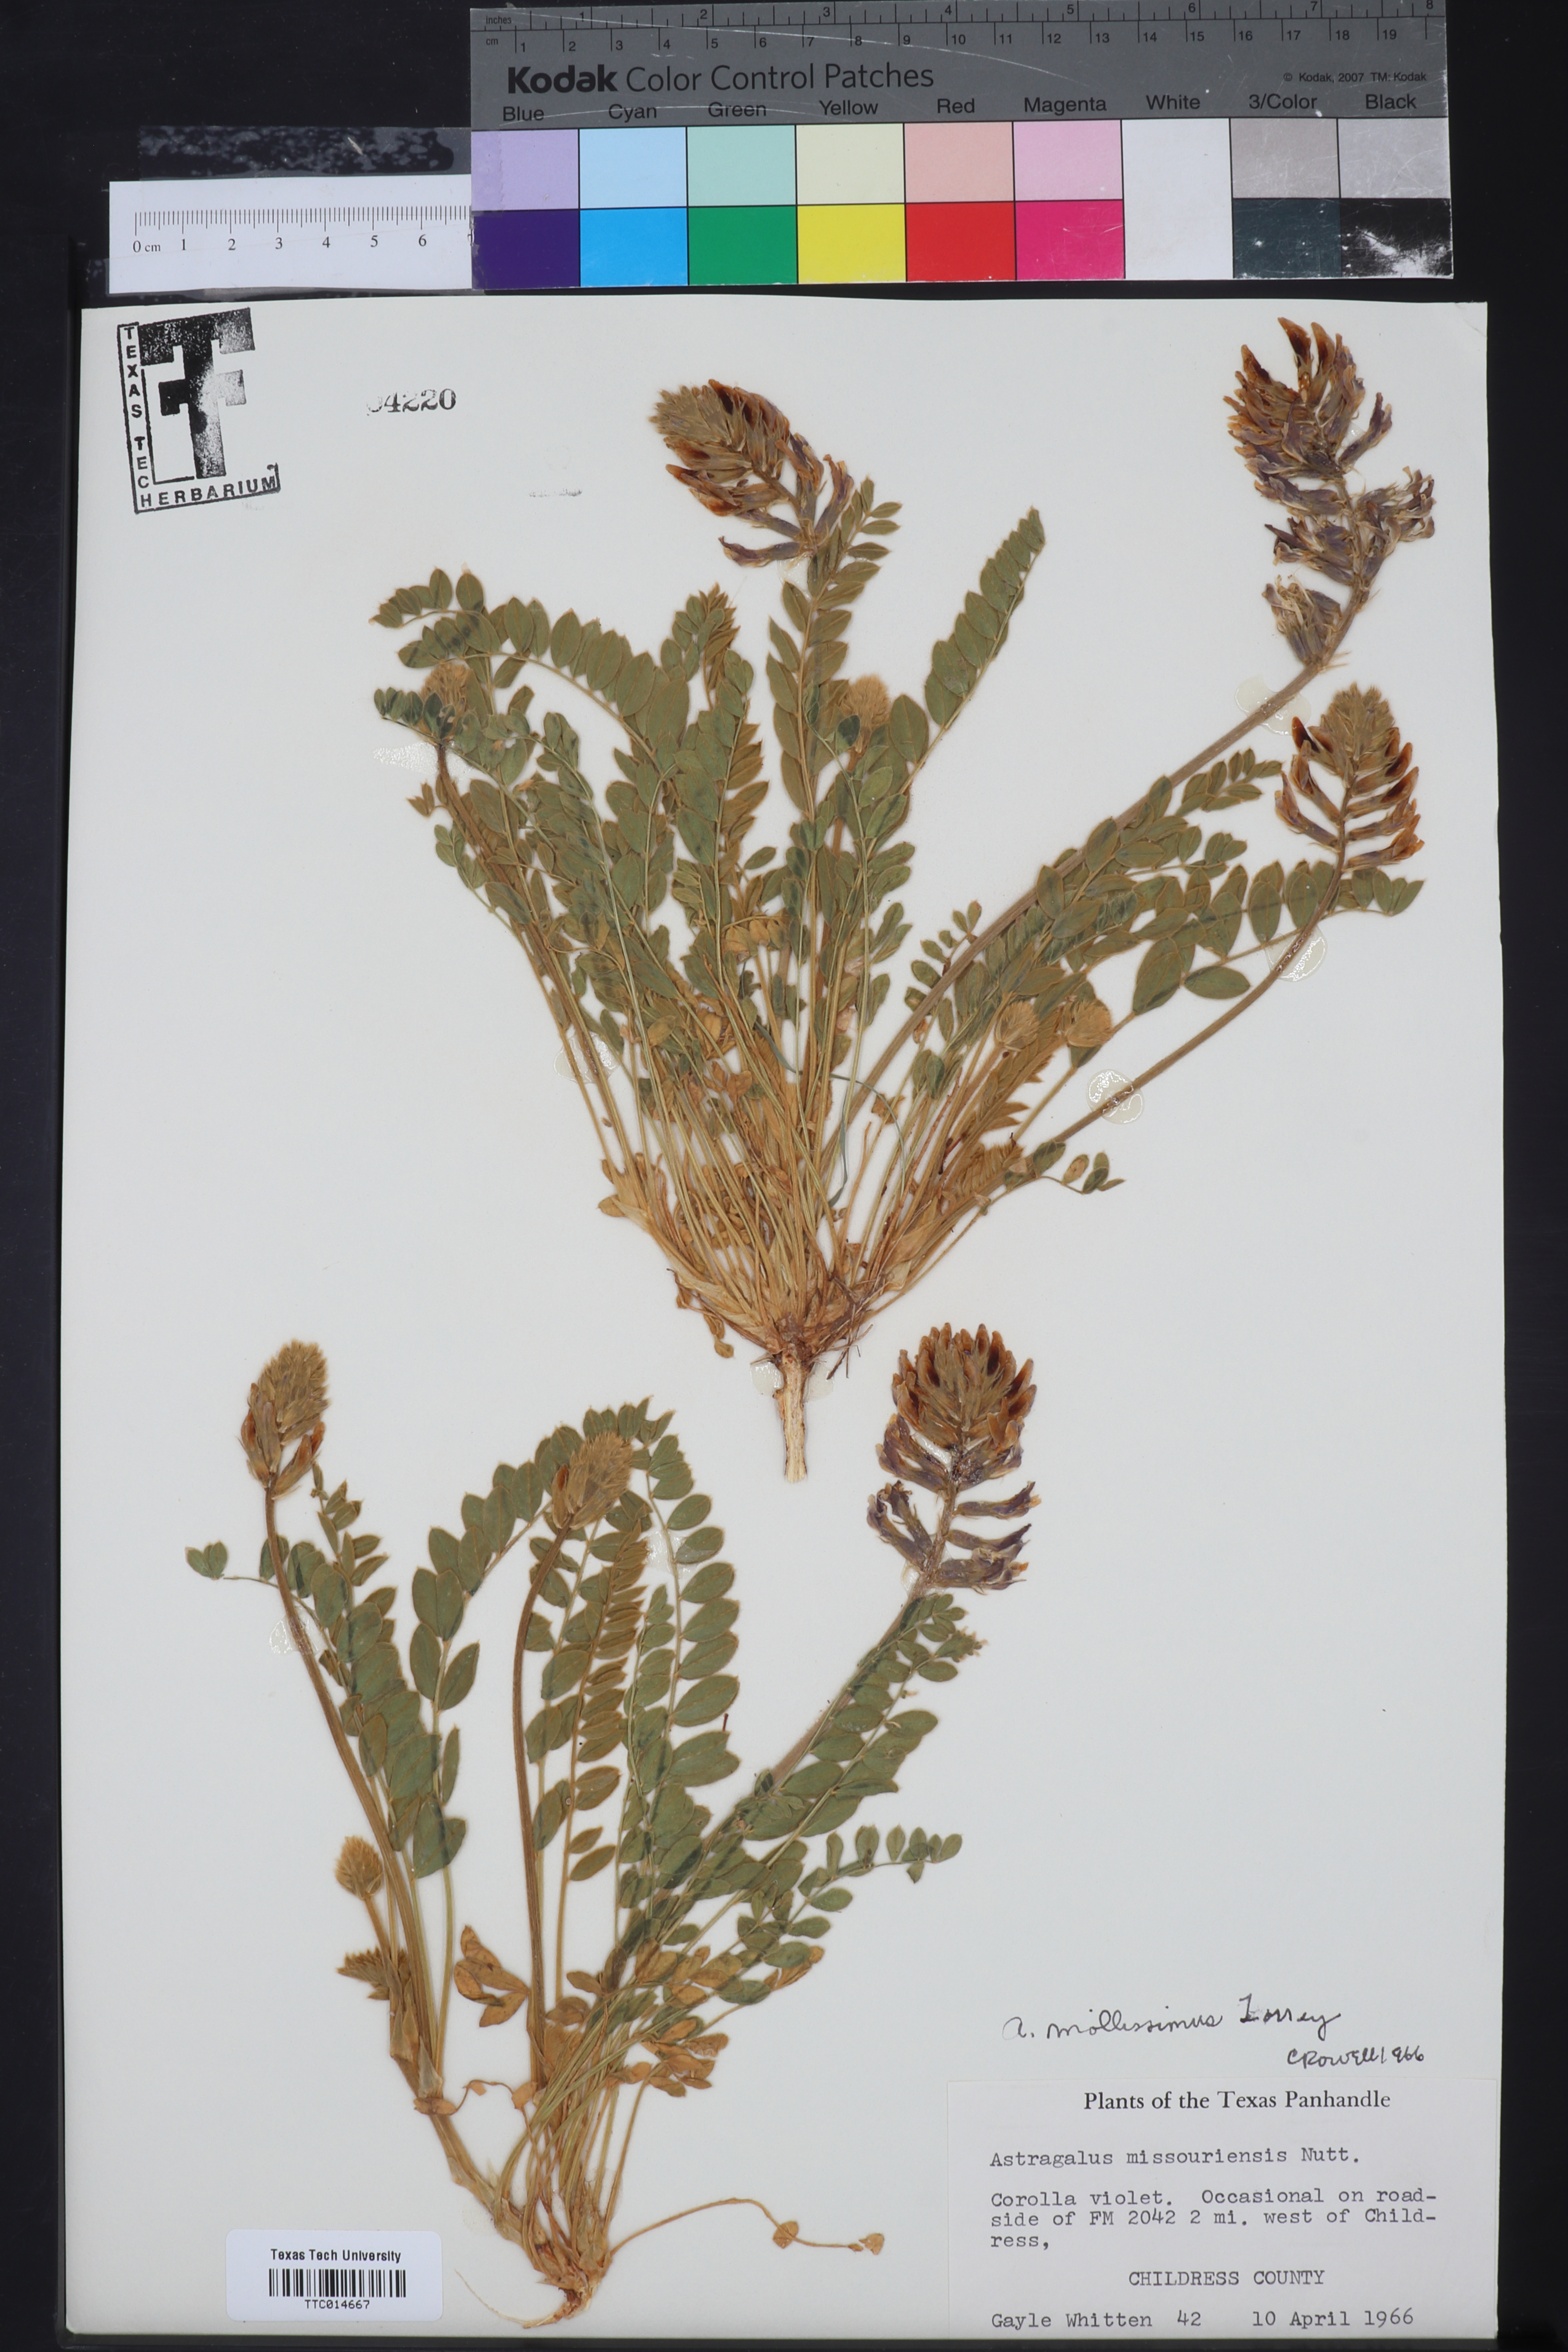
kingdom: Plantae
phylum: Tracheophyta
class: Magnoliopsida
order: Fabales
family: Fabaceae
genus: Astragalus
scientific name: Astragalus mollissimus
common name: Woolly locoweed
